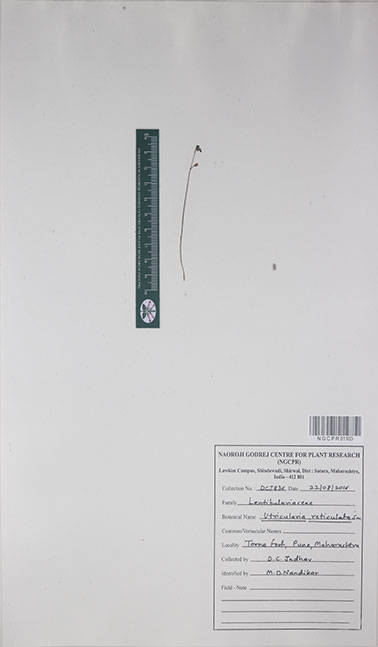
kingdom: Plantae
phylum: Tracheophyta
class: Magnoliopsida
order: Lamiales
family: Lentibulariaceae
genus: Utricularia
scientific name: Utricularia reticulata
